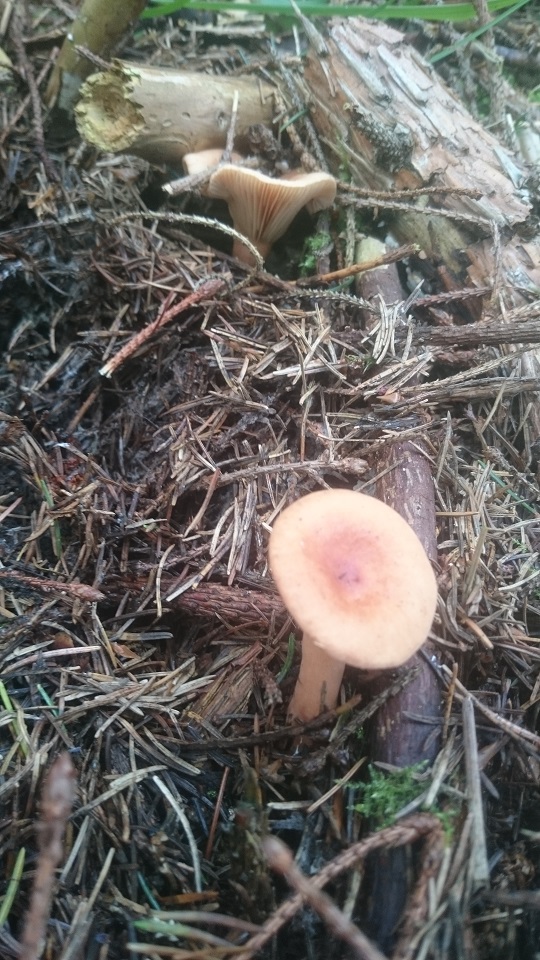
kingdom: Fungi
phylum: Basidiomycota
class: Agaricomycetes
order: Russulales
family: Russulaceae
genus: Lactarius
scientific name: Lactarius tabidus
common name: rynket mælkehat
